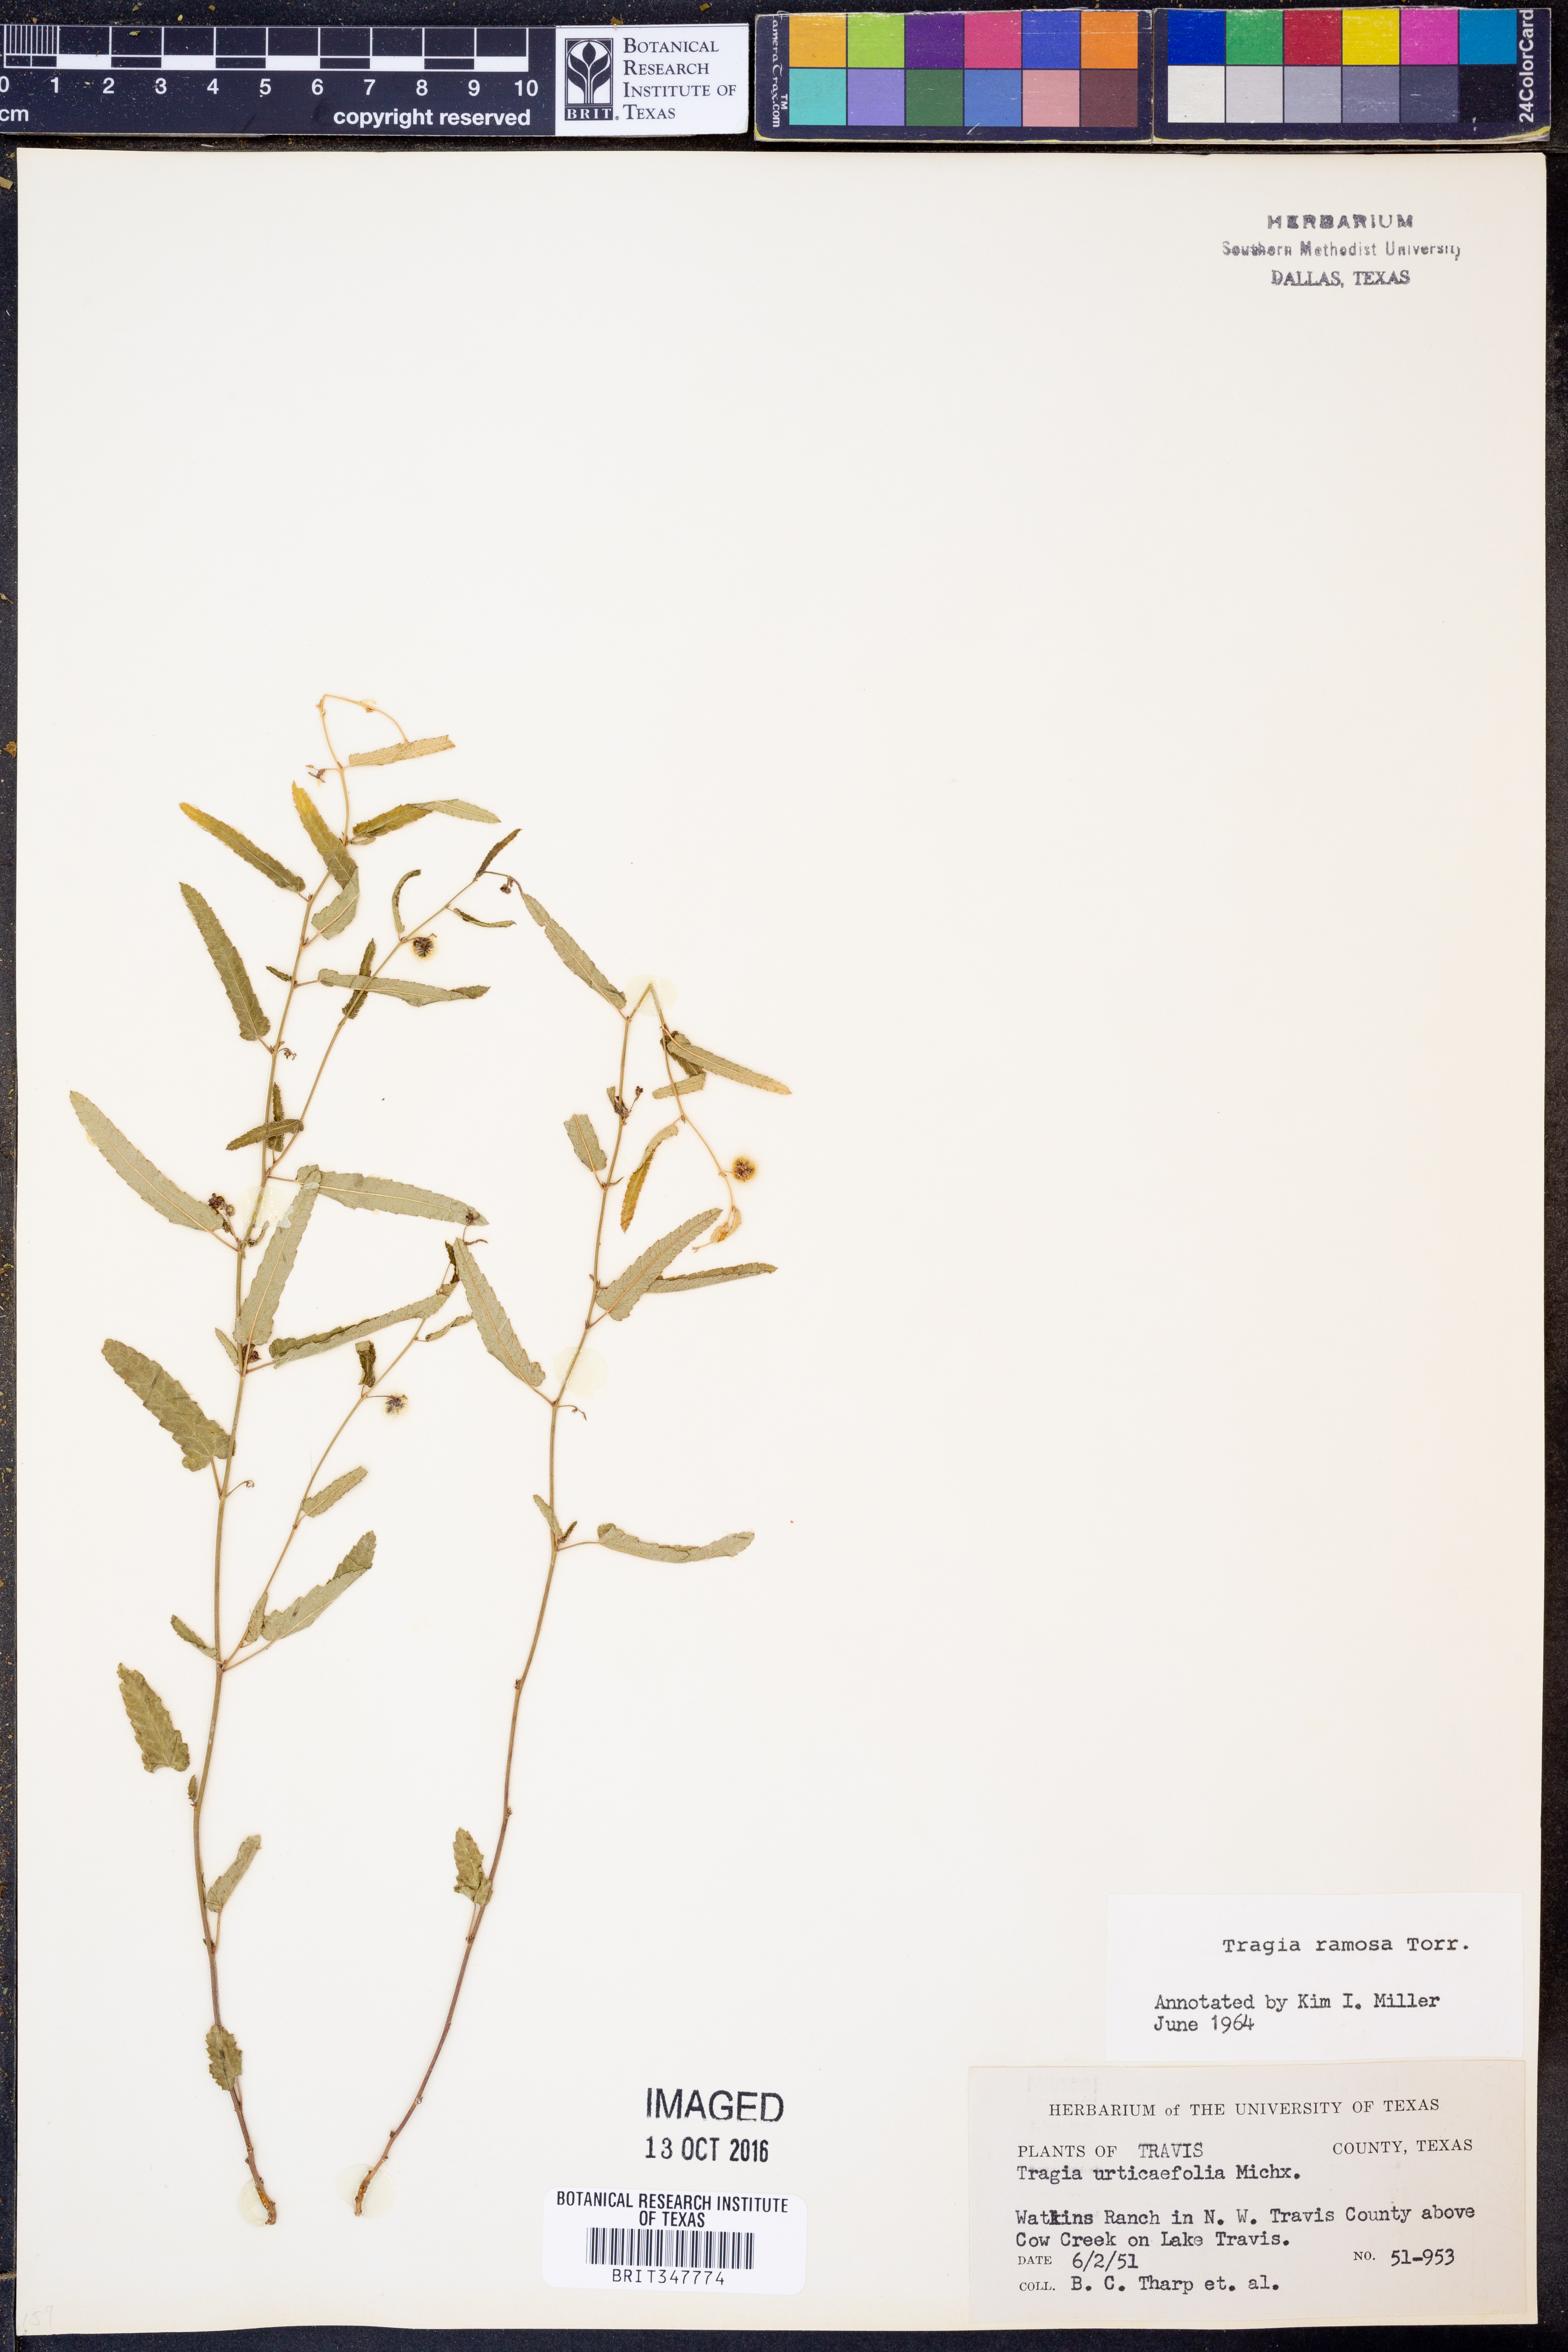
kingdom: Plantae
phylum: Tracheophyta
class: Magnoliopsida
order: Malpighiales
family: Euphorbiaceae
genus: Tragia
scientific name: Tragia ramosa
